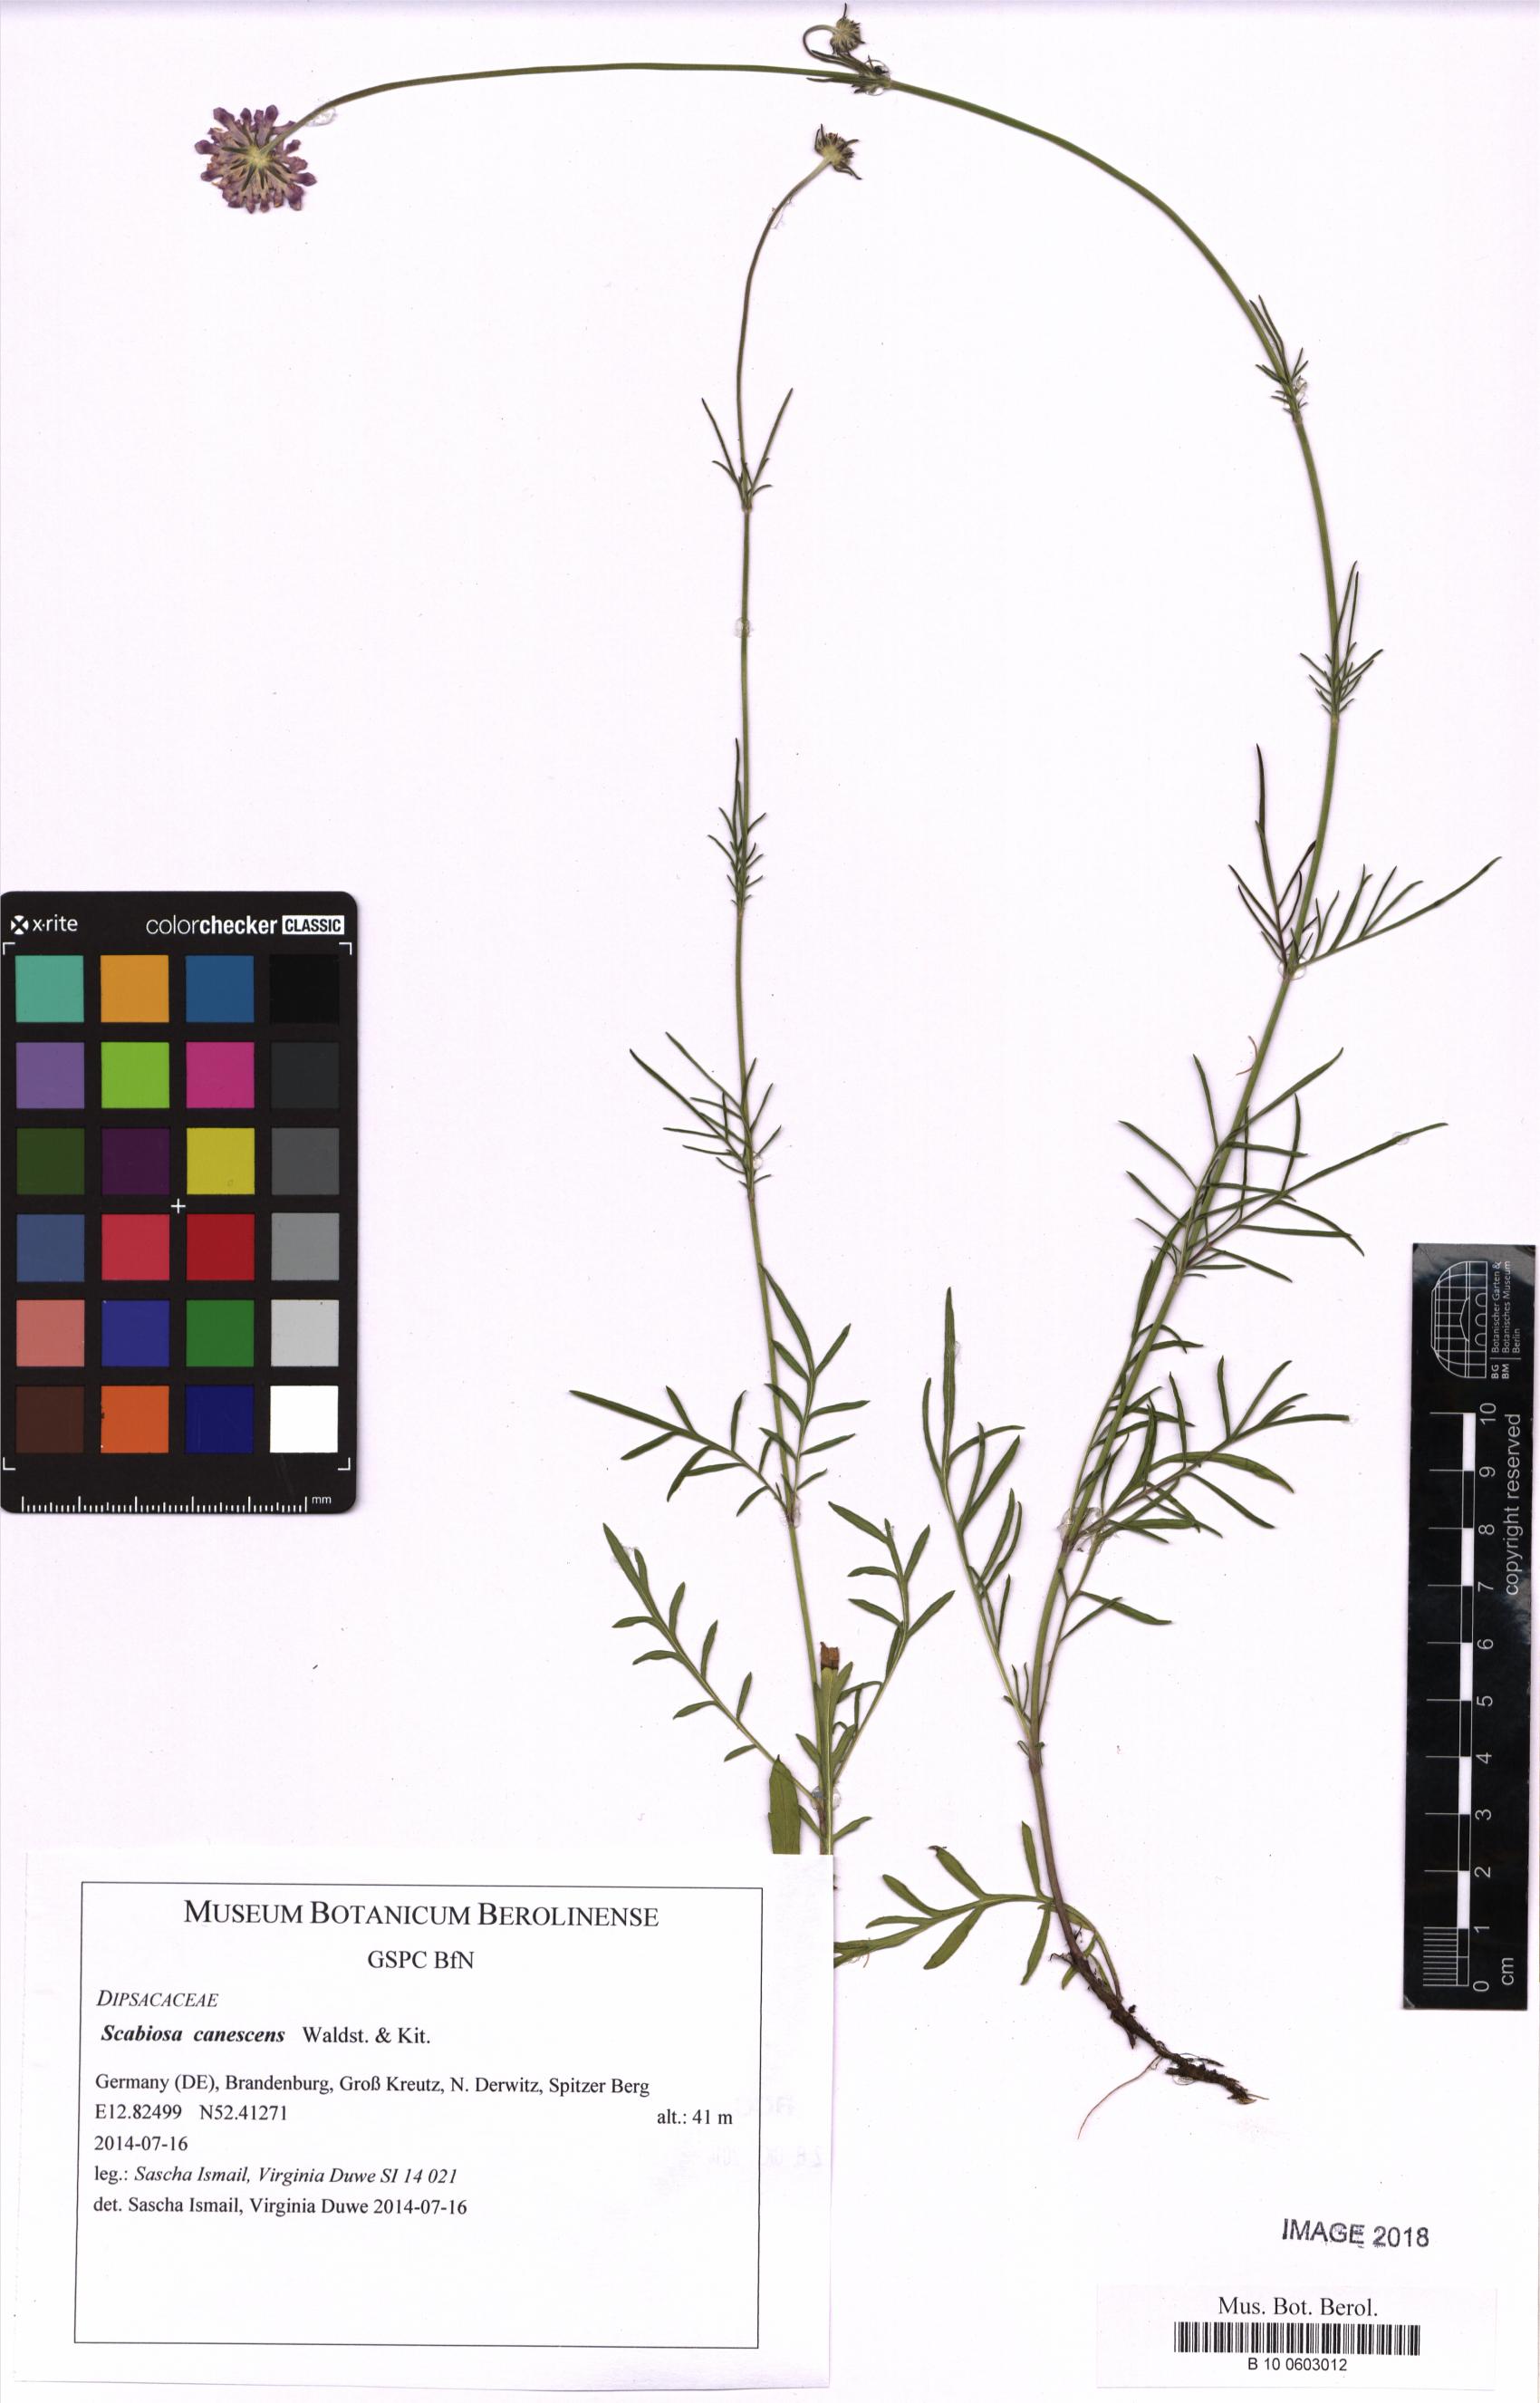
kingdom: Plantae
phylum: Tracheophyta
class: Magnoliopsida
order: Dipsacales
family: Caprifoliaceae
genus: Scabiosa
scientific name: Scabiosa canescens
